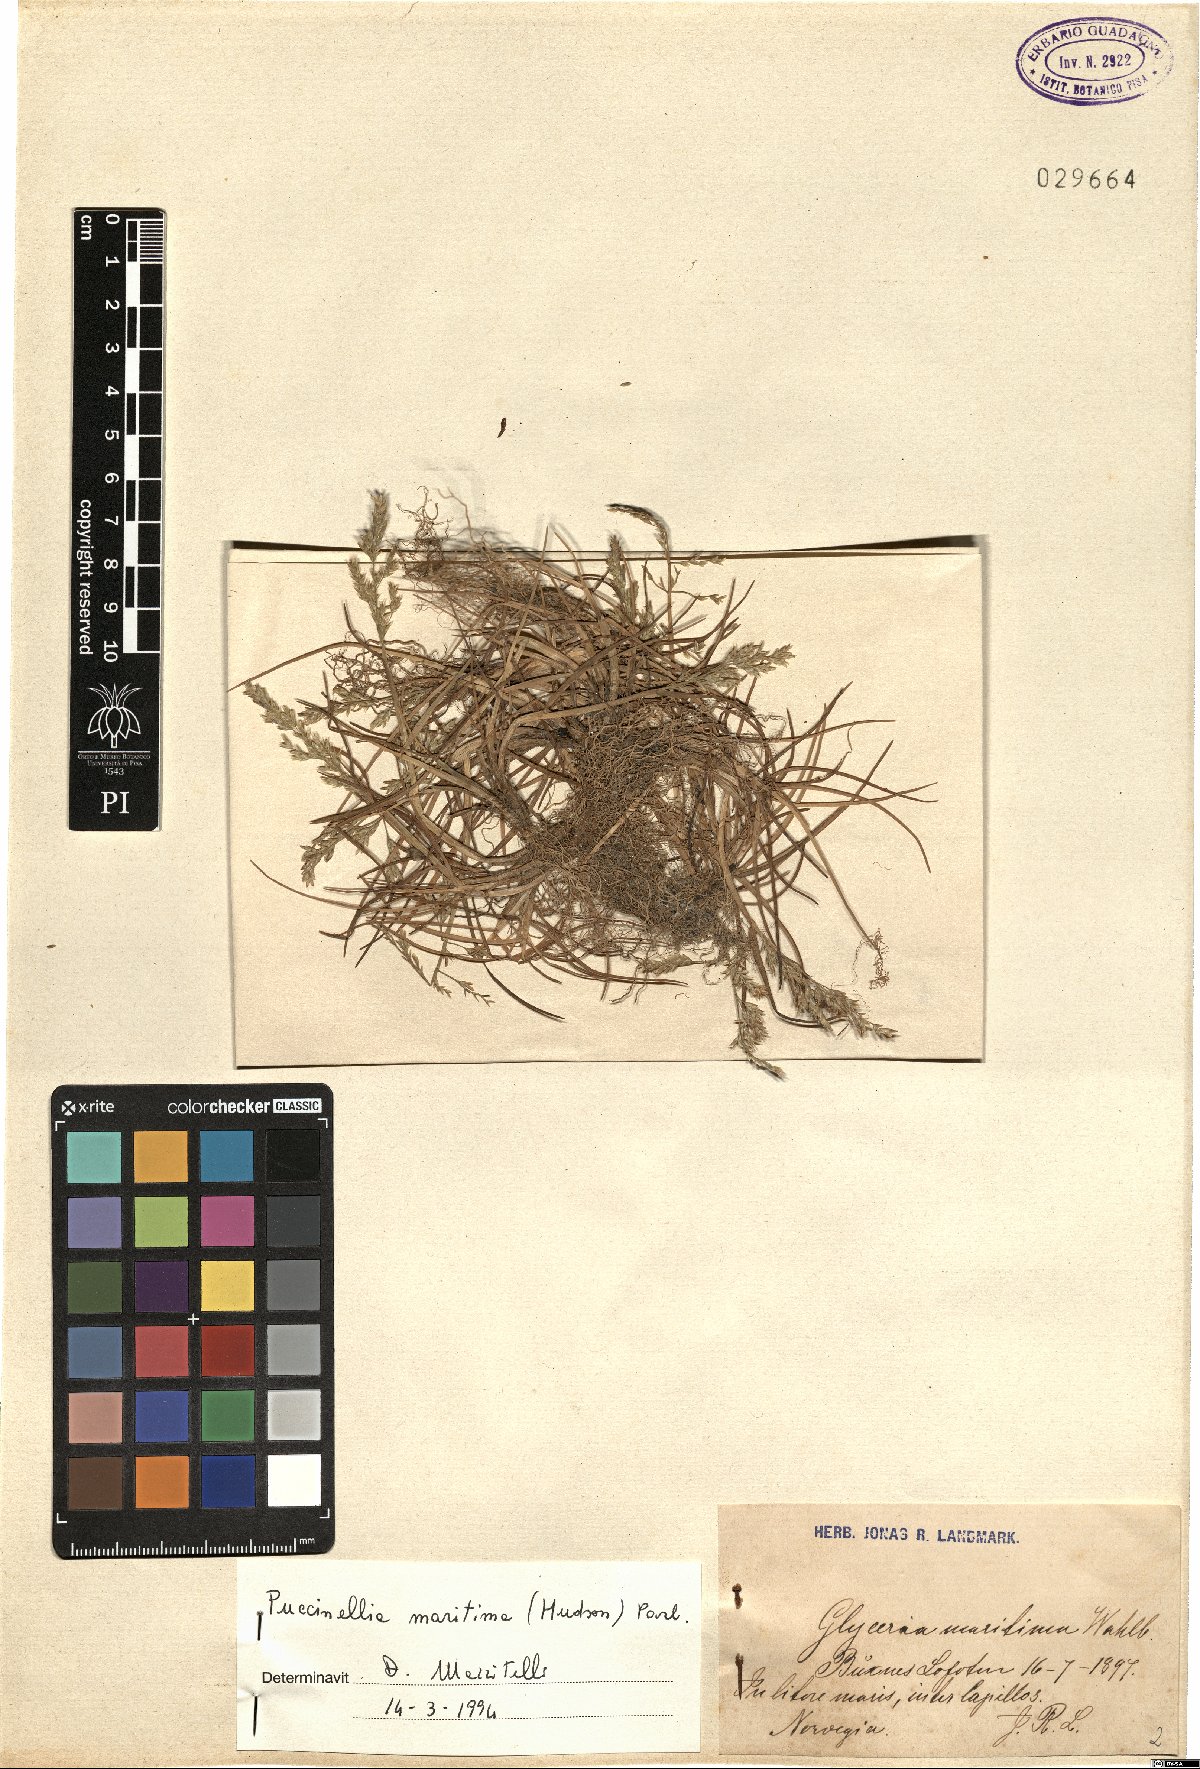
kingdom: Plantae
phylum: Tracheophyta
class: Liliopsida
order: Poales
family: Poaceae
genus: Puccinellia
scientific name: Puccinellia maritima
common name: Common saltmarsh grass
